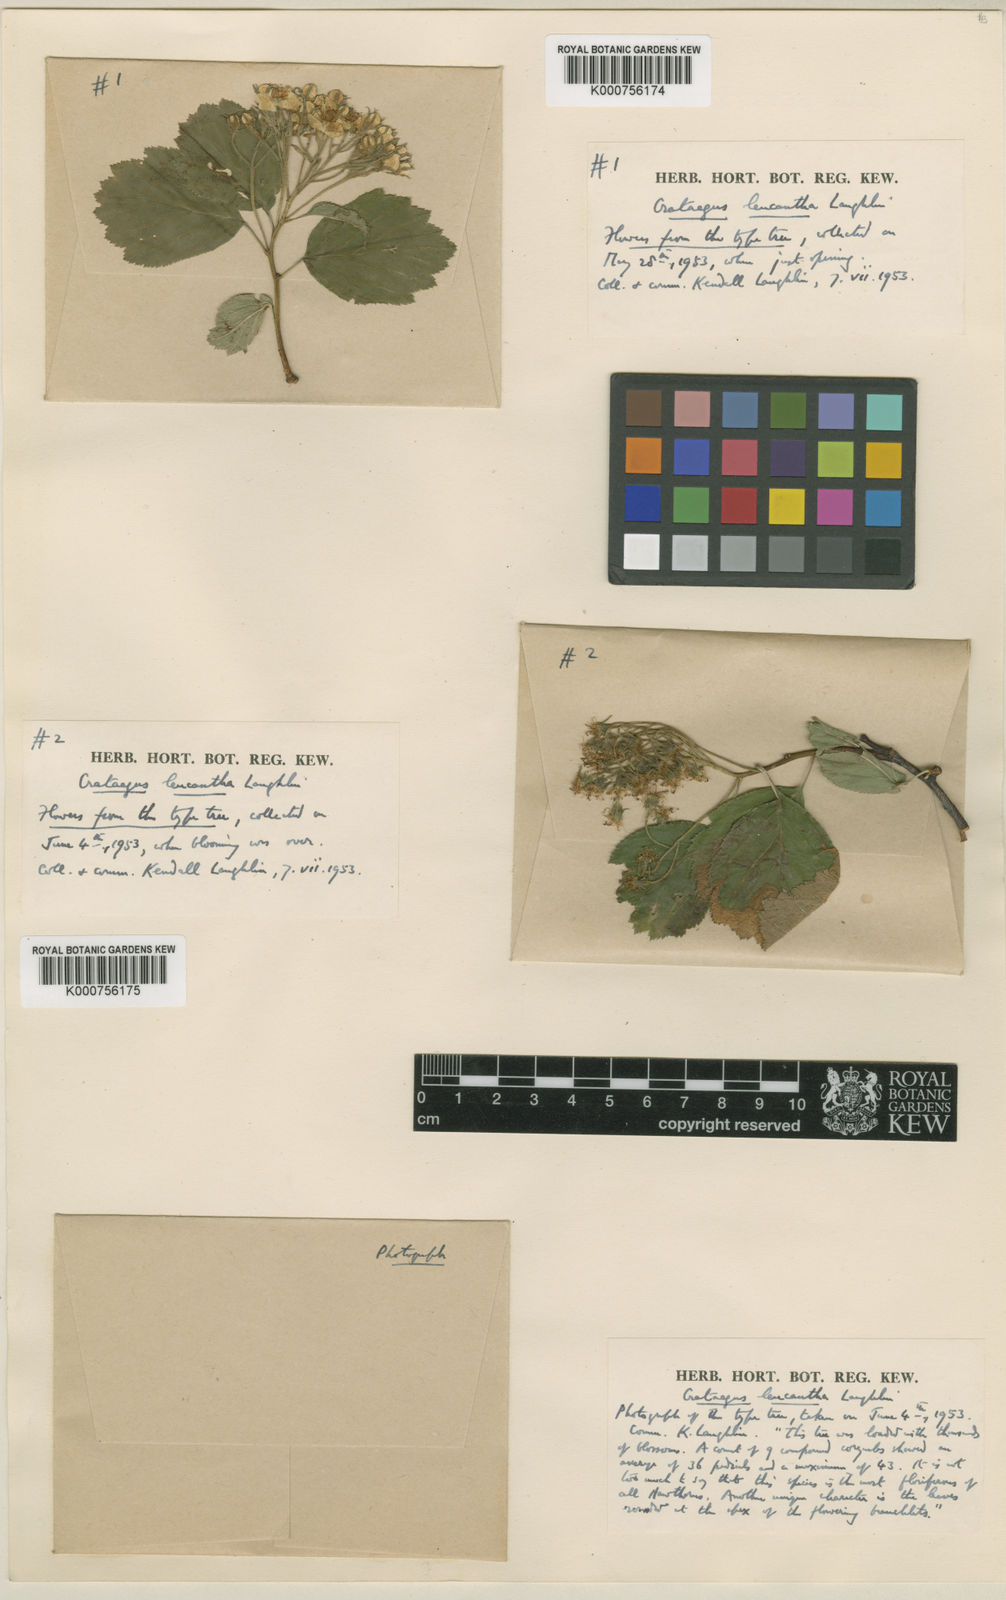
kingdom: Plantae
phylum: Tracheophyta
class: Magnoliopsida
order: Rosales
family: Rosaceae
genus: Crataegus
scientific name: Crataegus succulenta
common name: Fleshy hawthorn
